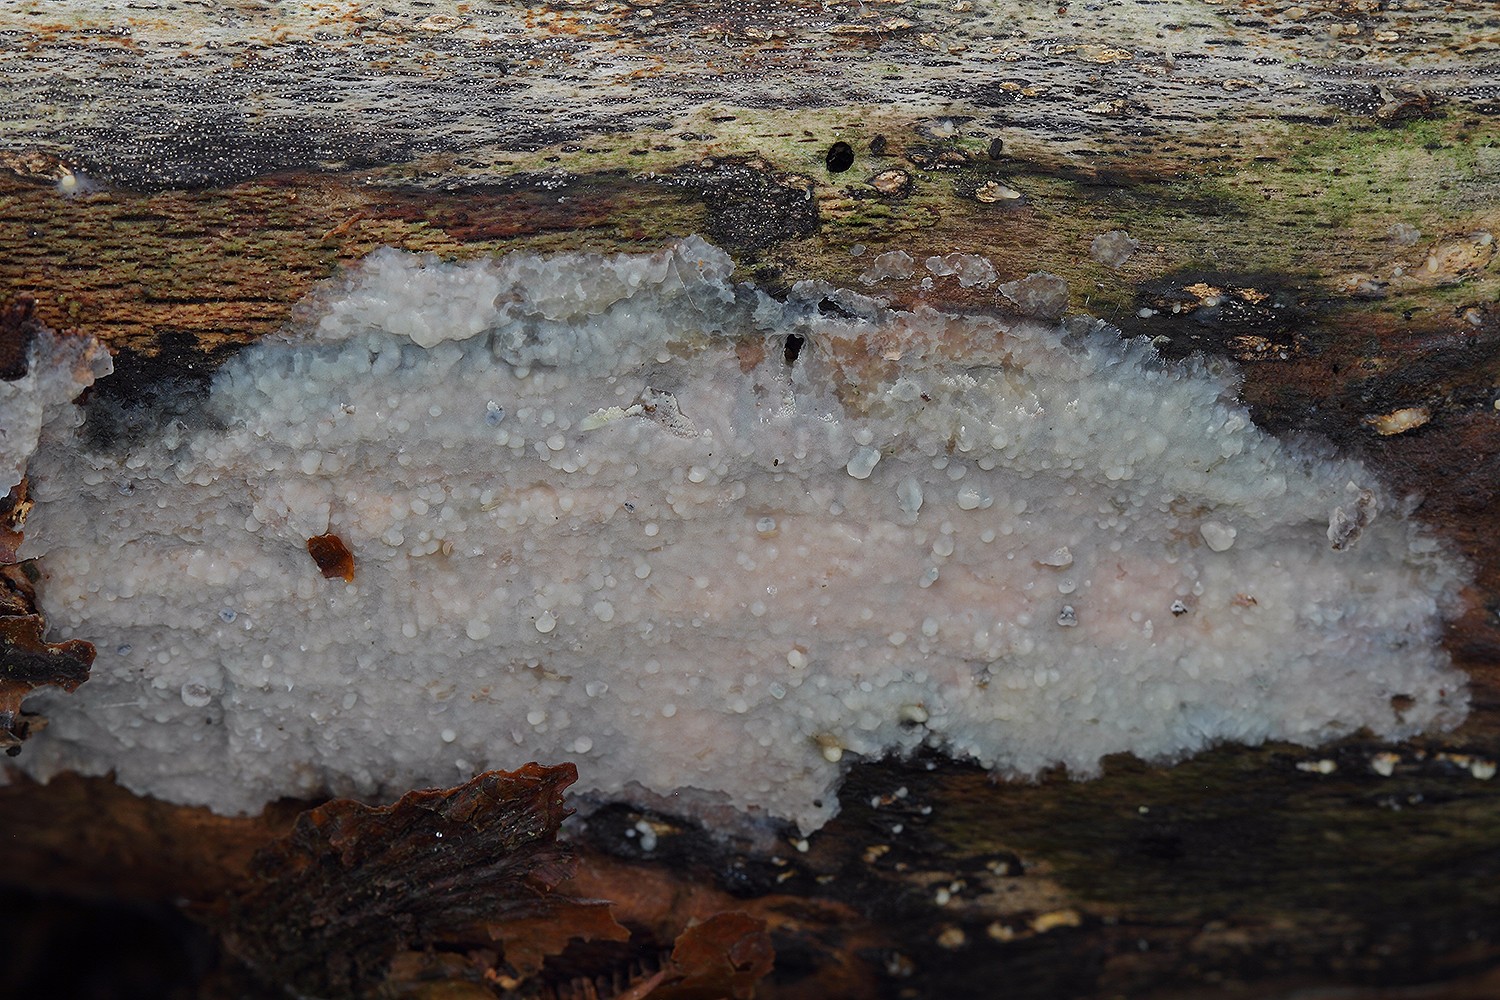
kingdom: Fungi
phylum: Basidiomycota
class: Agaricomycetes
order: Agaricales
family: Radulomycetaceae
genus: Radulomyces
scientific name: Radulomyces confluens
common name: glat naftalinskind
